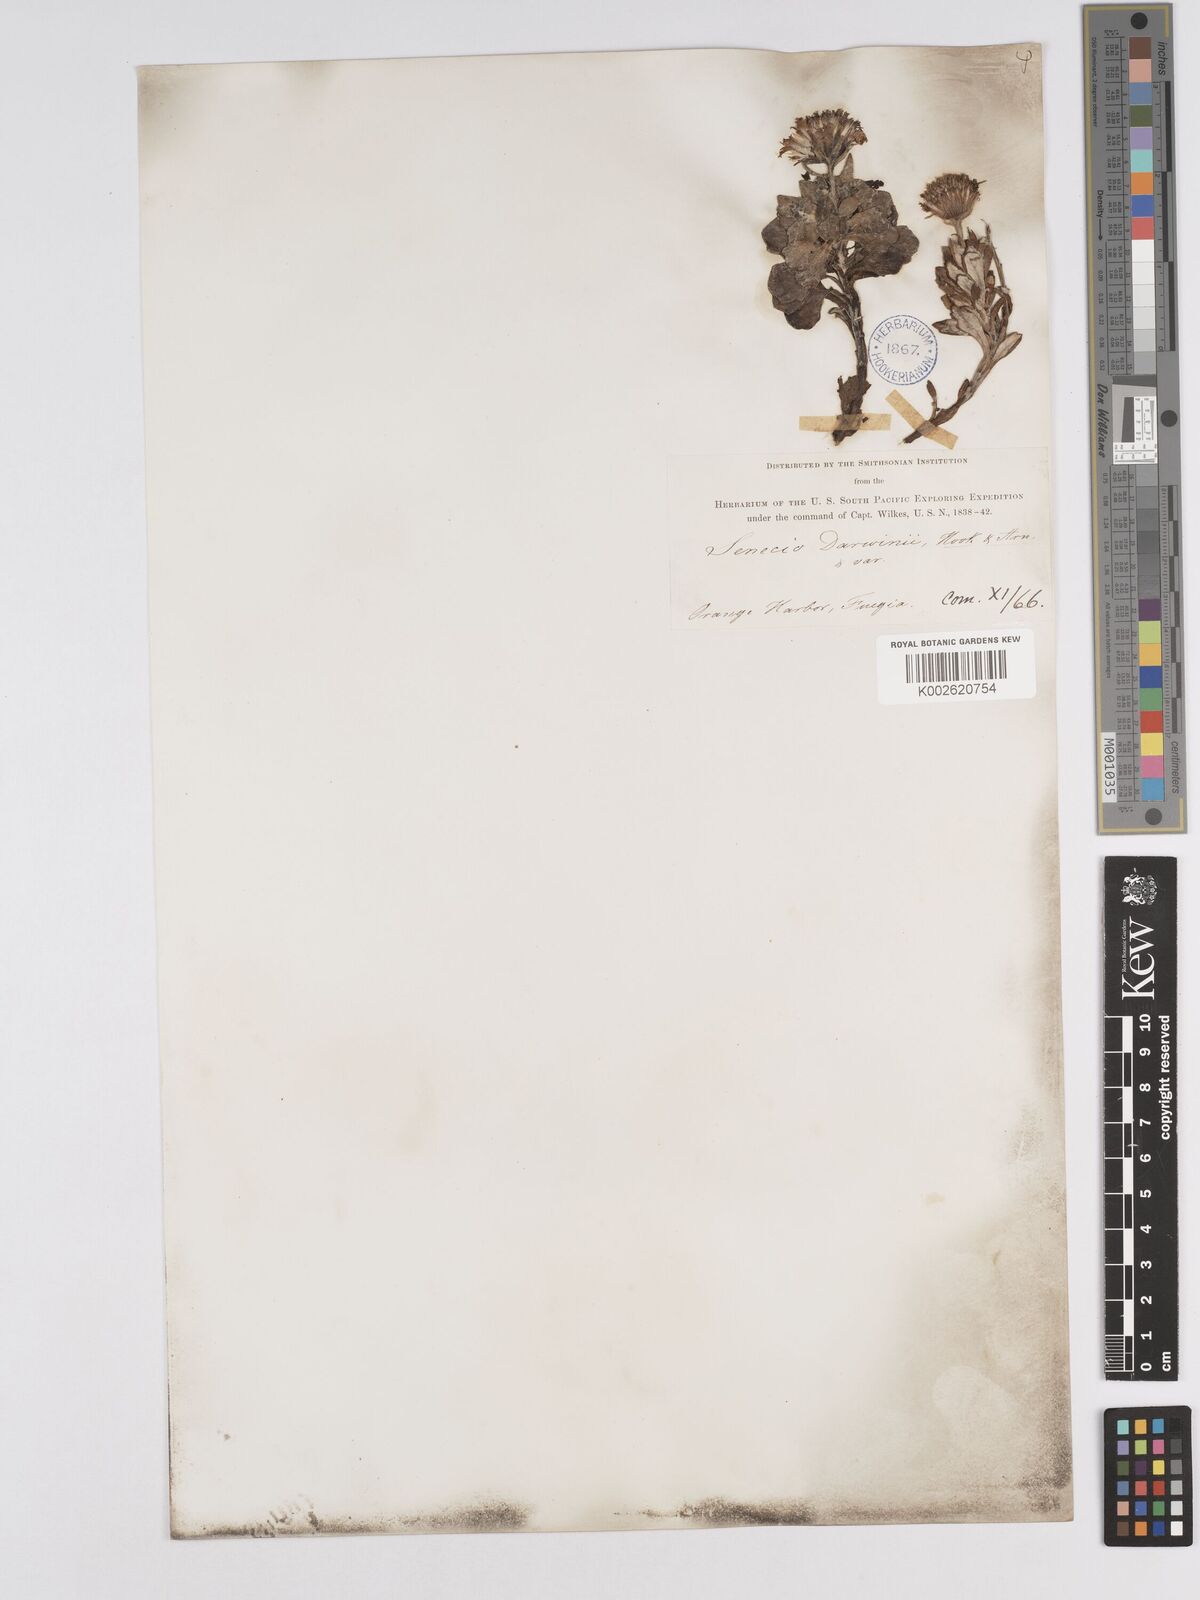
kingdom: Plantae
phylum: Tracheophyta
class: Magnoliopsida
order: Asterales
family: Asteraceae
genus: Senecio
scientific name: Senecio darwinii
